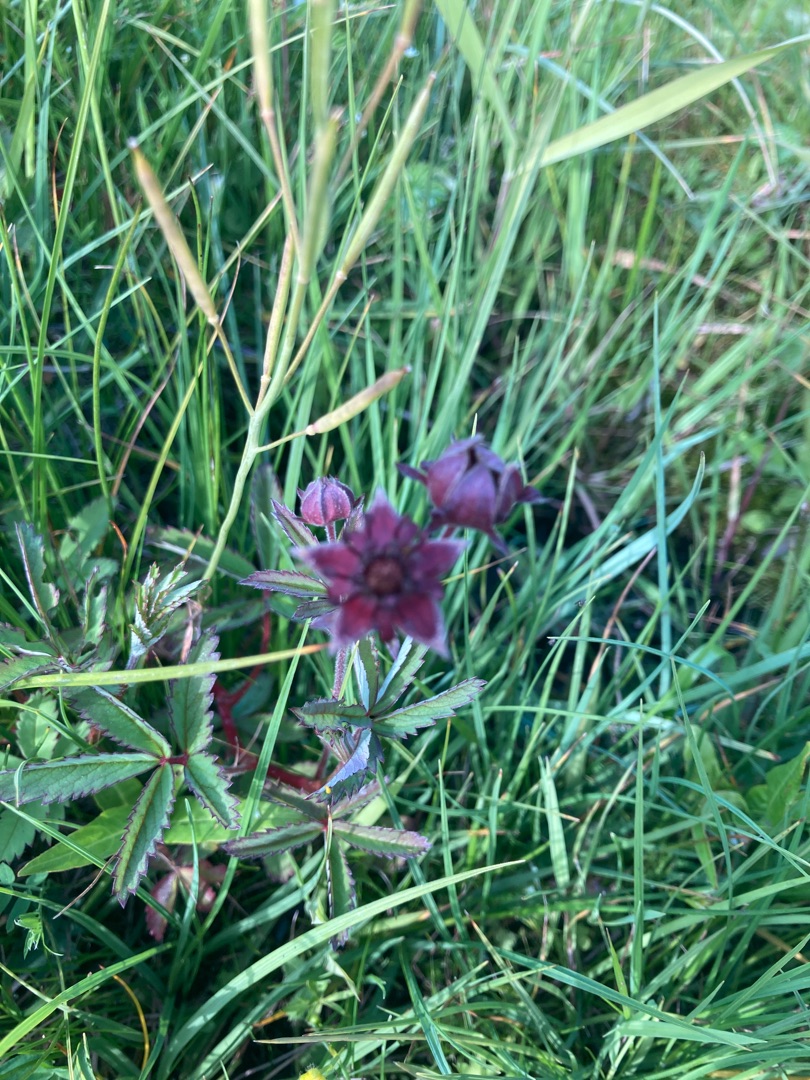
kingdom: Plantae
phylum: Tracheophyta
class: Magnoliopsida
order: Rosales
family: Rosaceae
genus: Comarum
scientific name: Comarum palustre
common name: Kragefod
